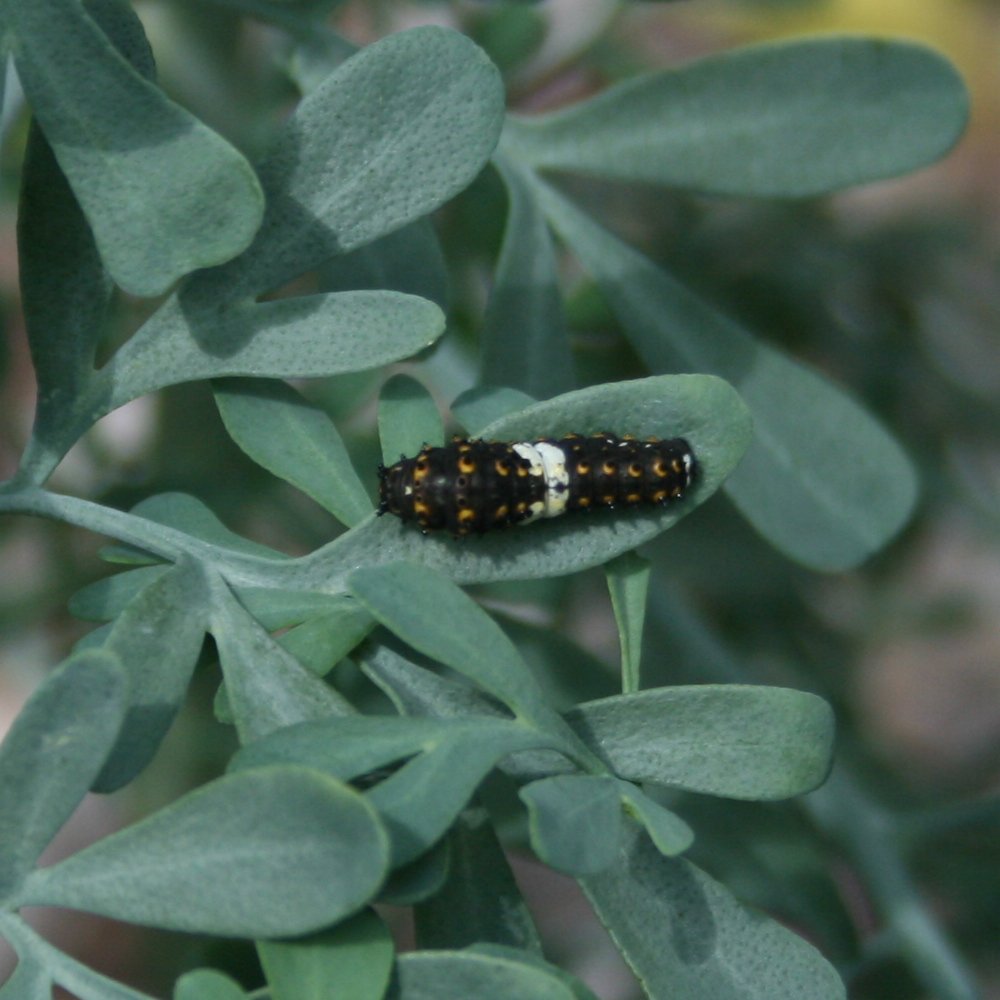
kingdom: Animalia
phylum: Arthropoda
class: Insecta
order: Lepidoptera
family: Papilionidae
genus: Papilio
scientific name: Papilio polyxenes
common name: Black Swallowtail
